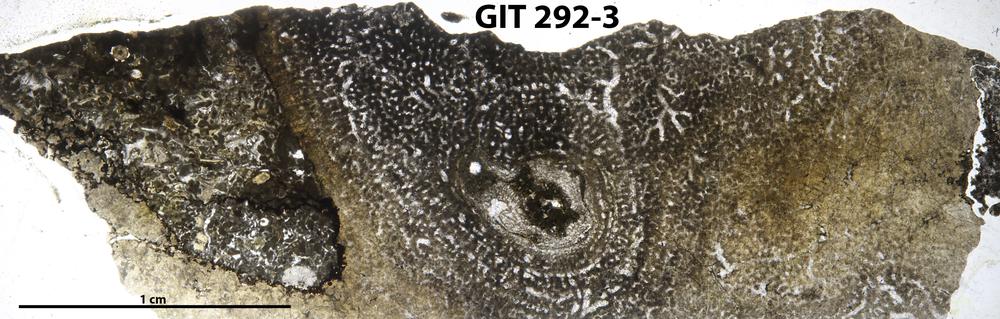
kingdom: Animalia
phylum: Porifera
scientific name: Porifera
